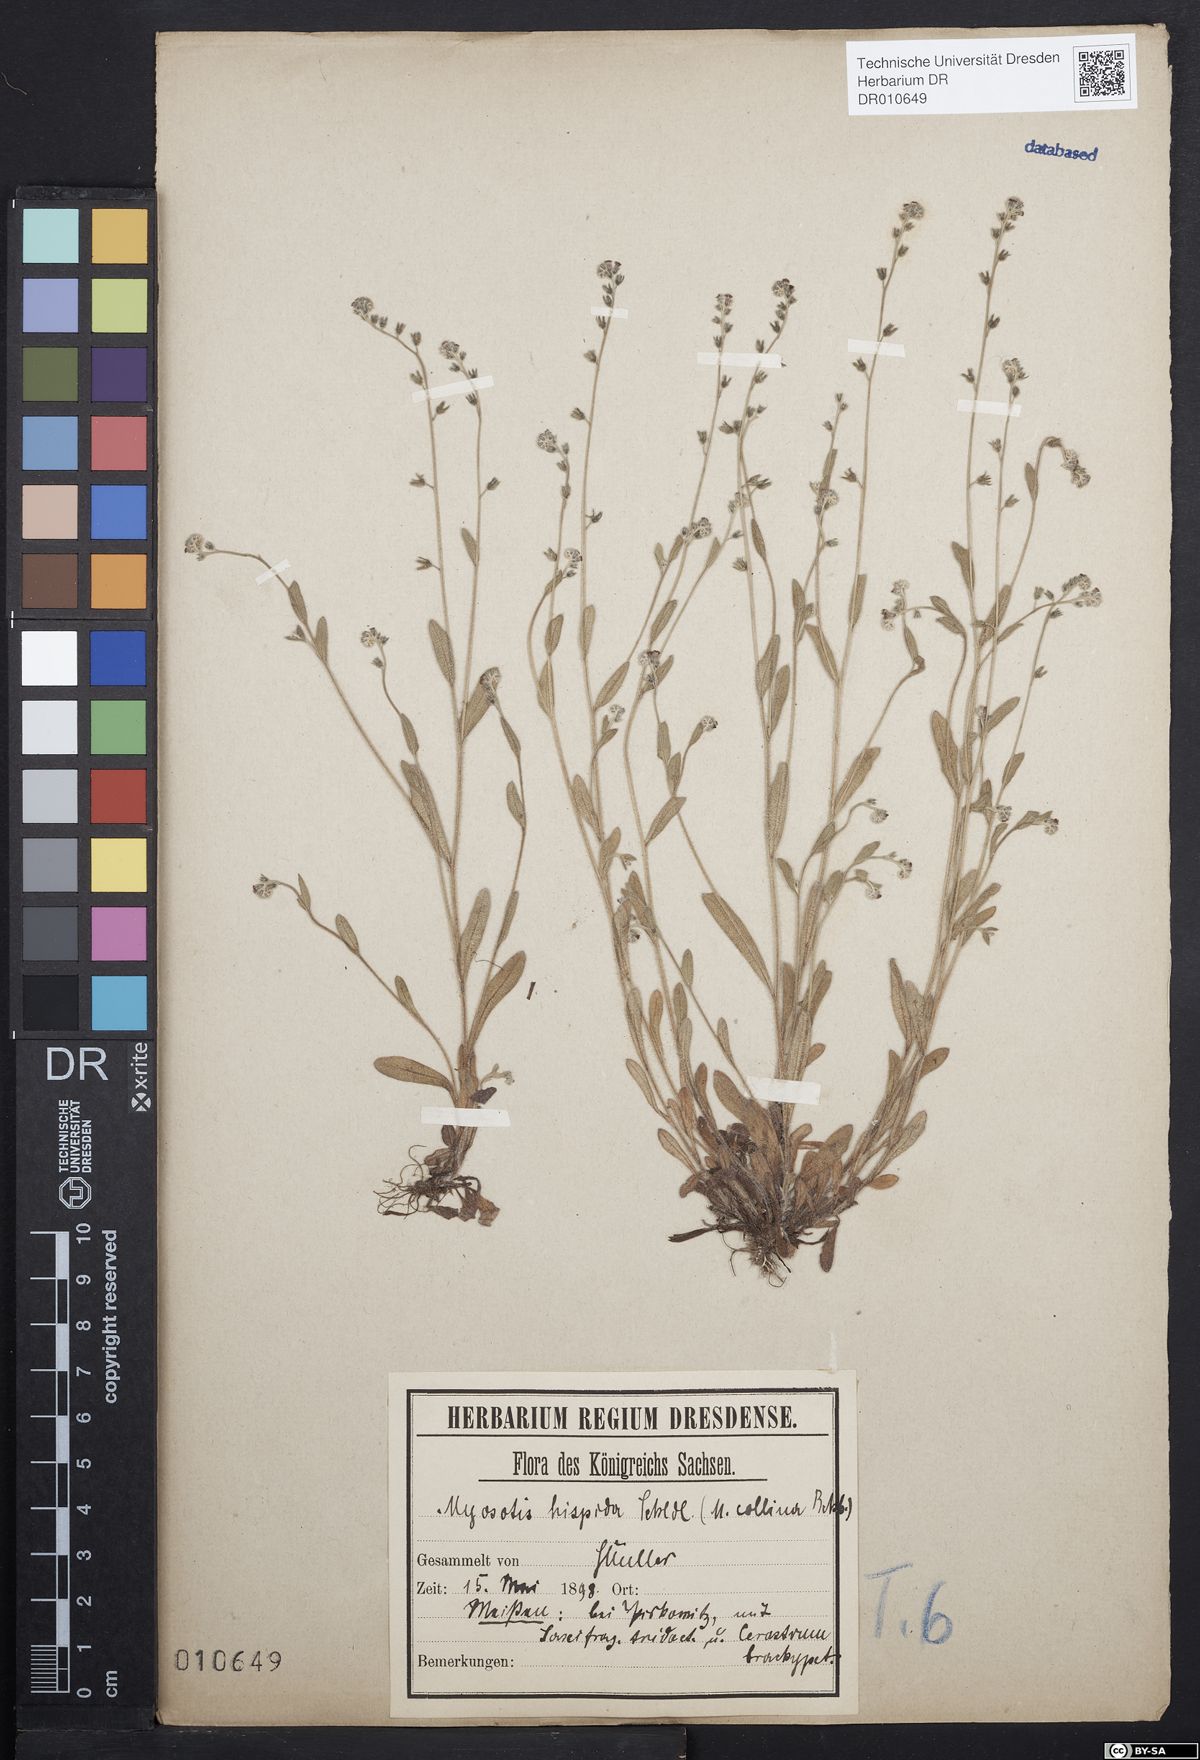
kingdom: Plantae
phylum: Tracheophyta
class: Magnoliopsida
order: Boraginales
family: Boraginaceae
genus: Myosotis
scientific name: Myosotis ramosissima
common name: Early forget-me-not
